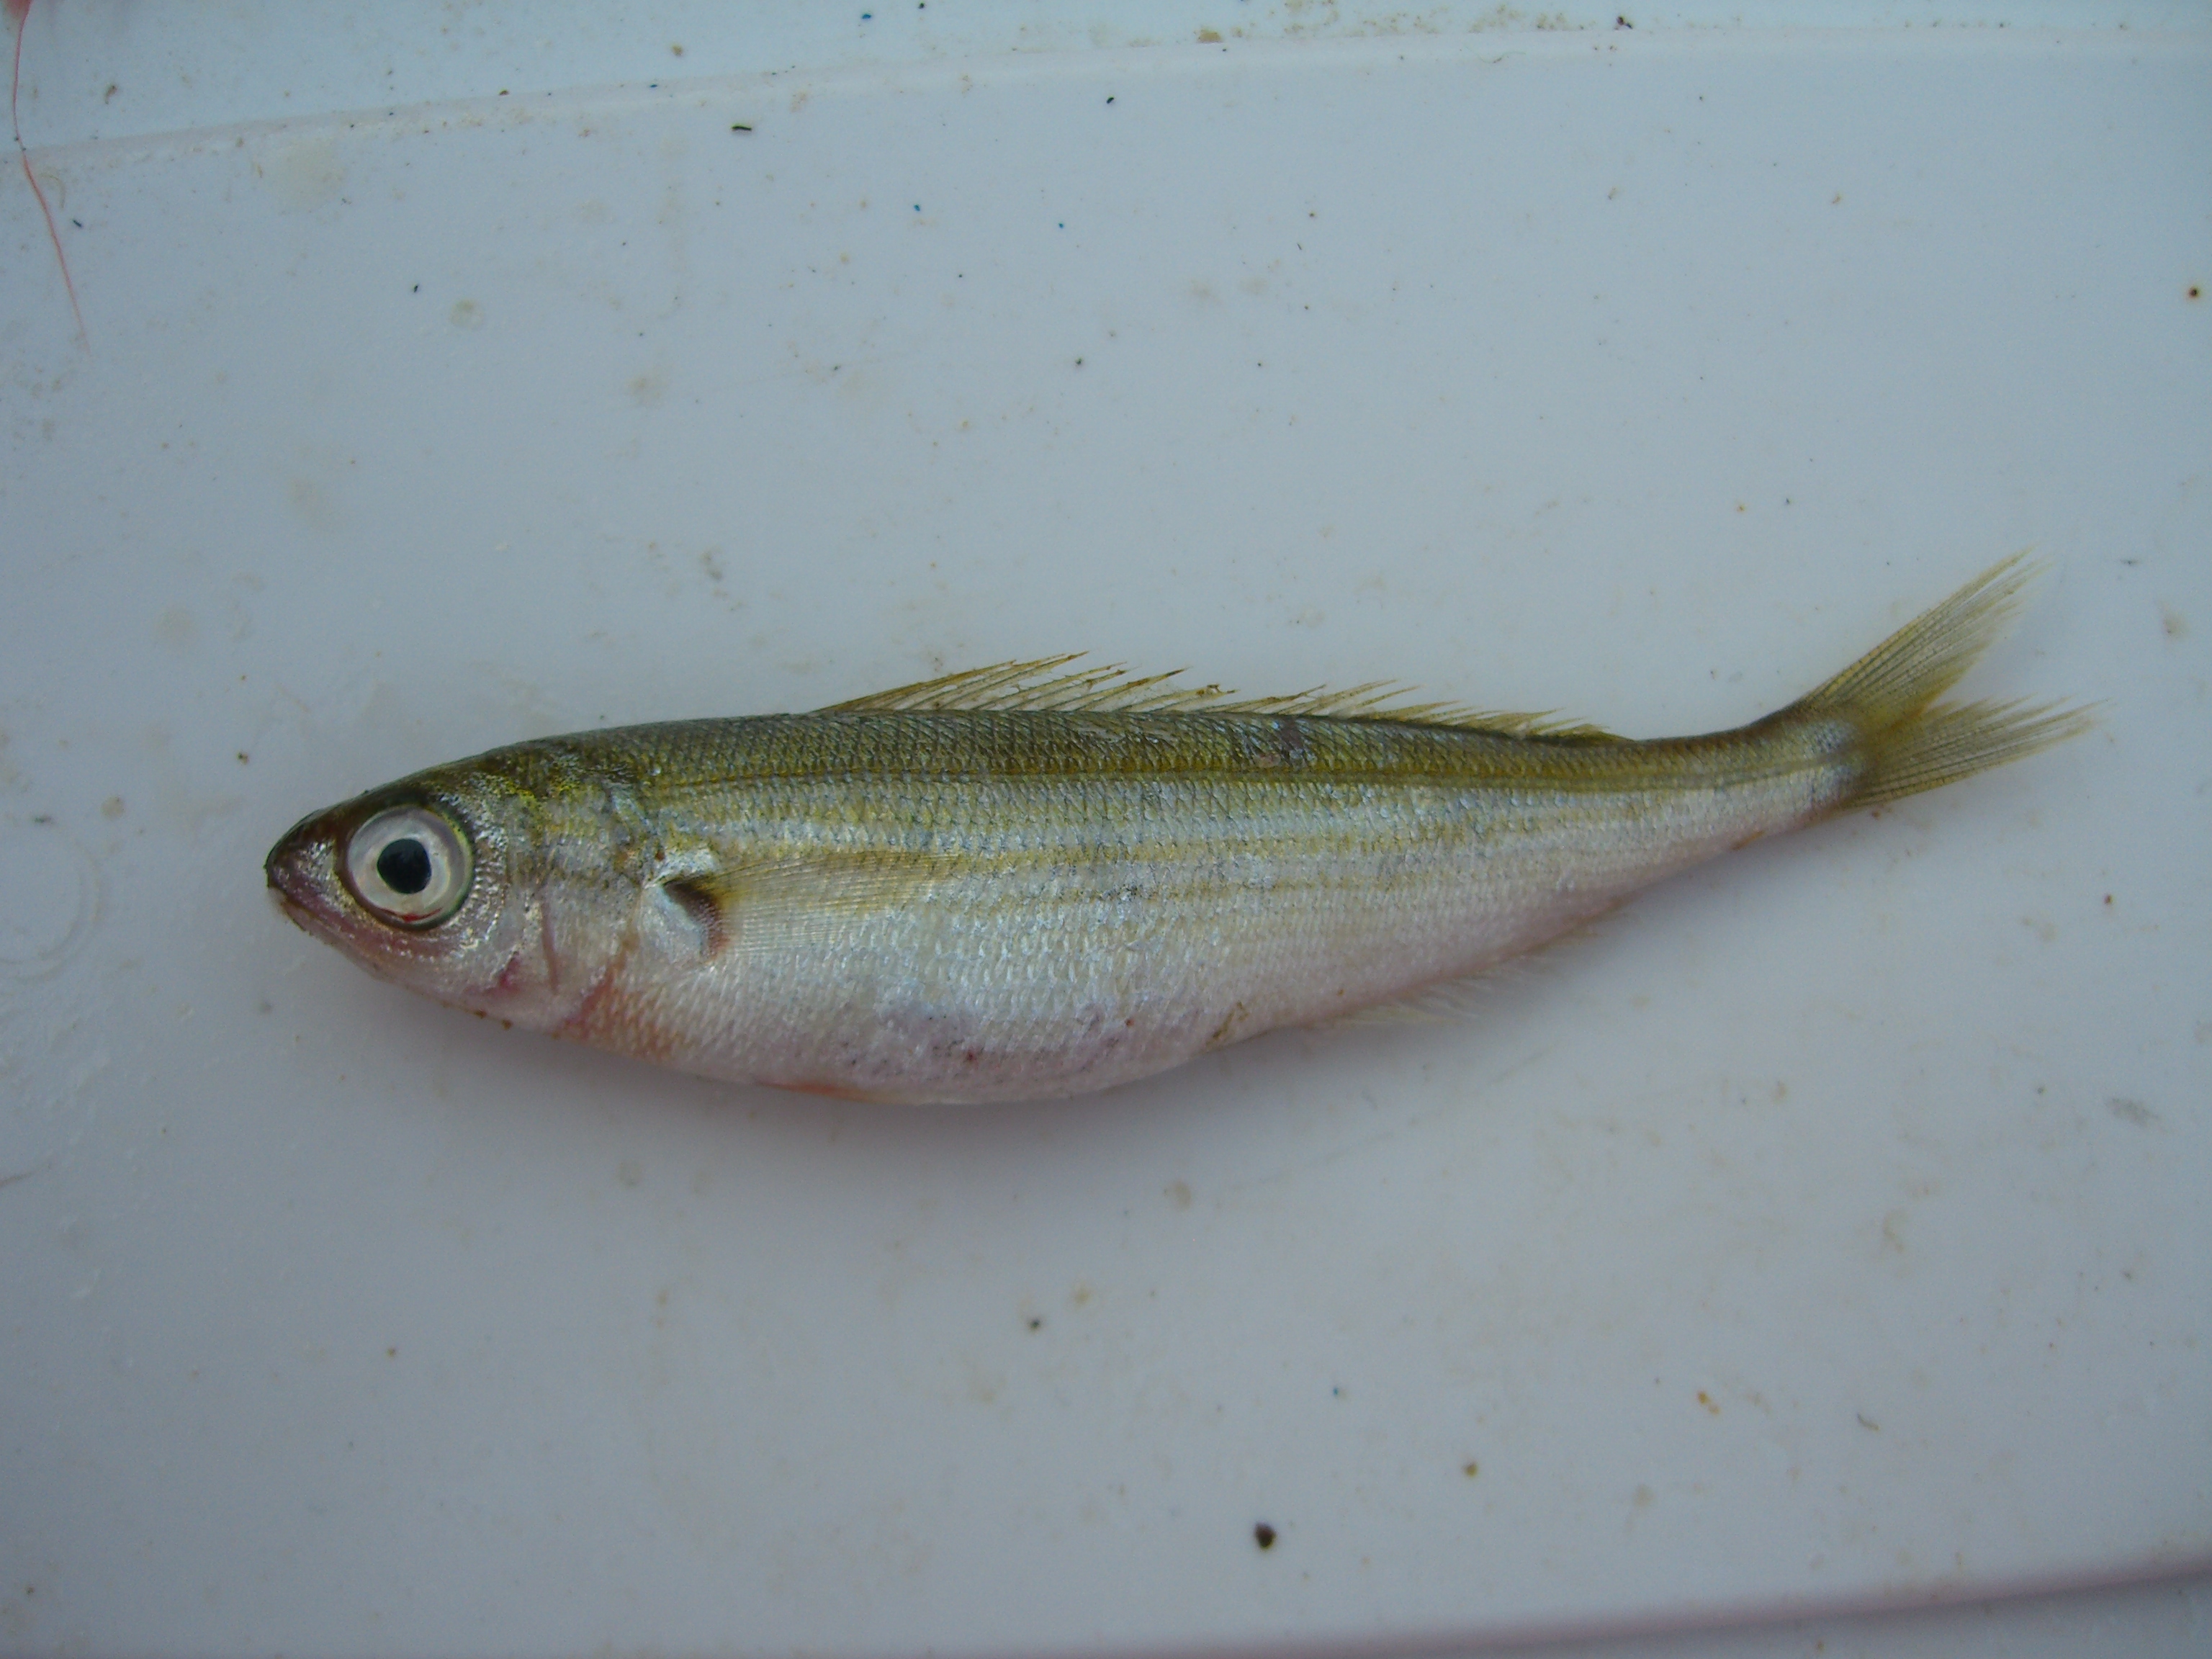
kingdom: Animalia
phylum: Chordata
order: Perciformes
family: Sparidae
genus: Boops
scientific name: Boops boops
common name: Bogue
